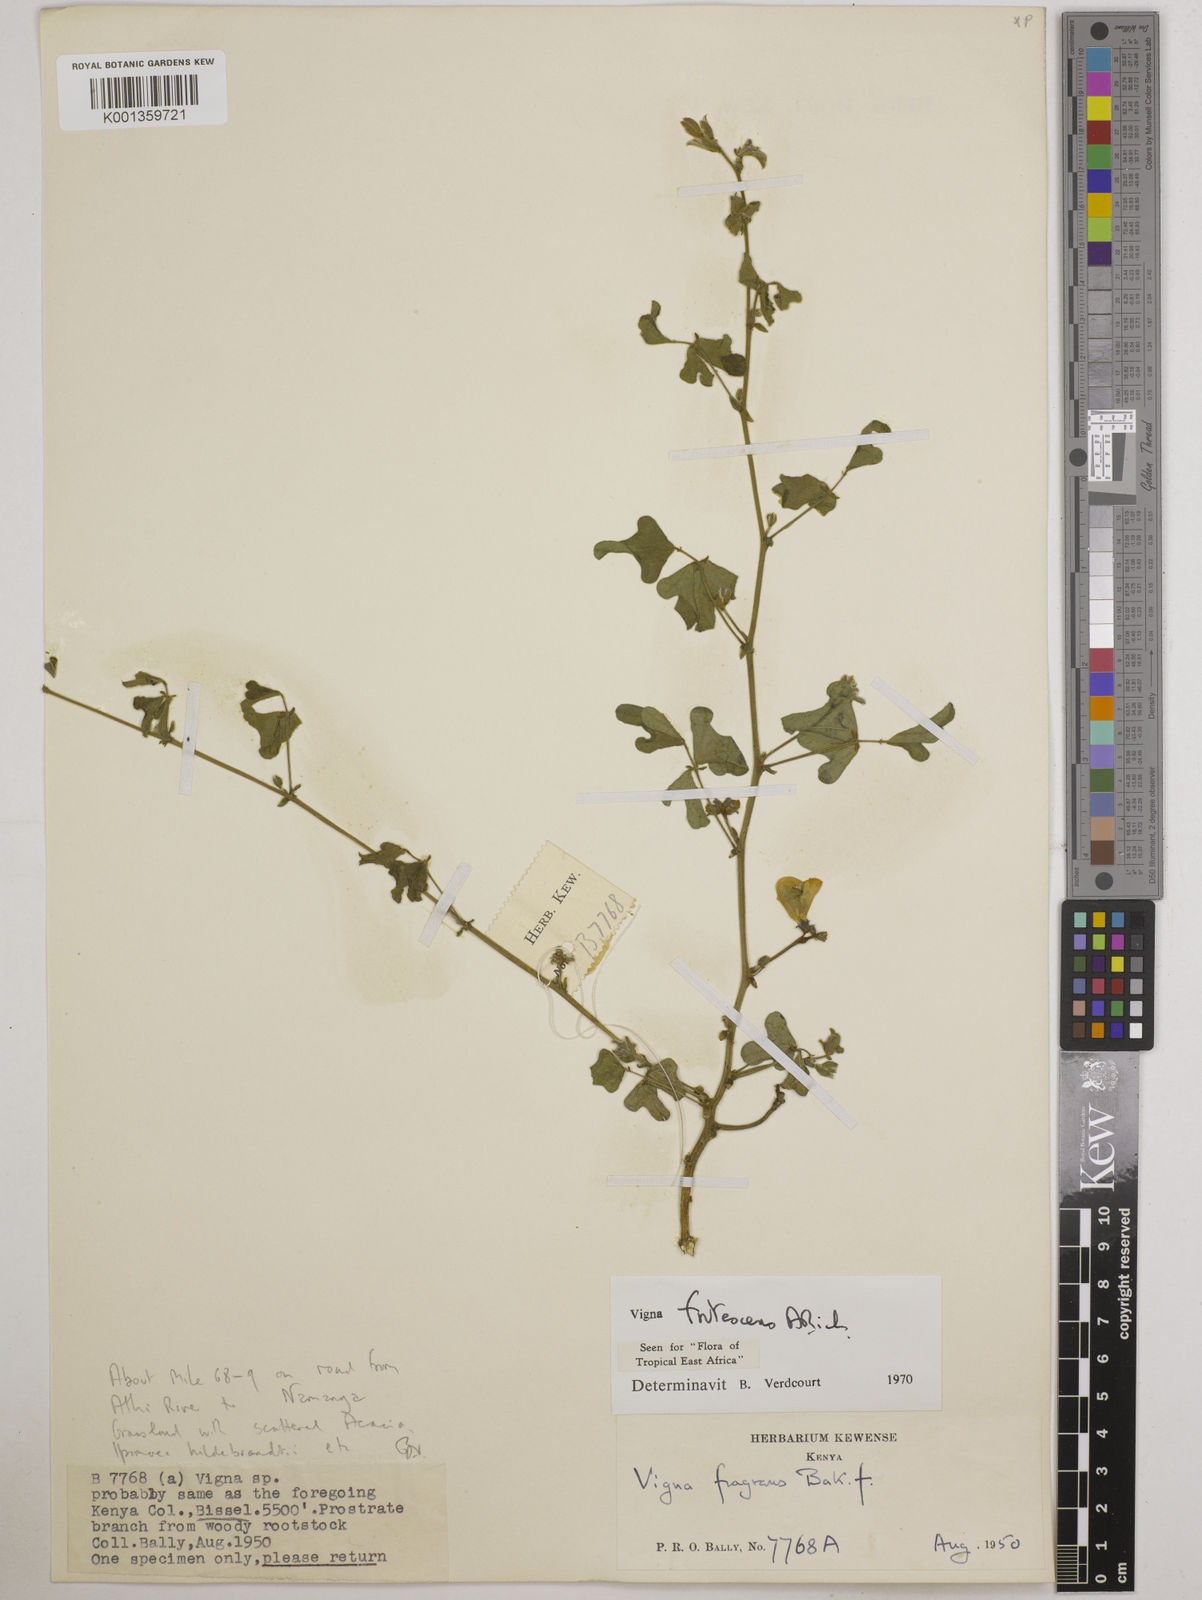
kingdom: Plantae
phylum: Tracheophyta
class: Magnoliopsida
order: Fabales
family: Fabaceae
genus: Vigna
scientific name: Vigna frutescens
